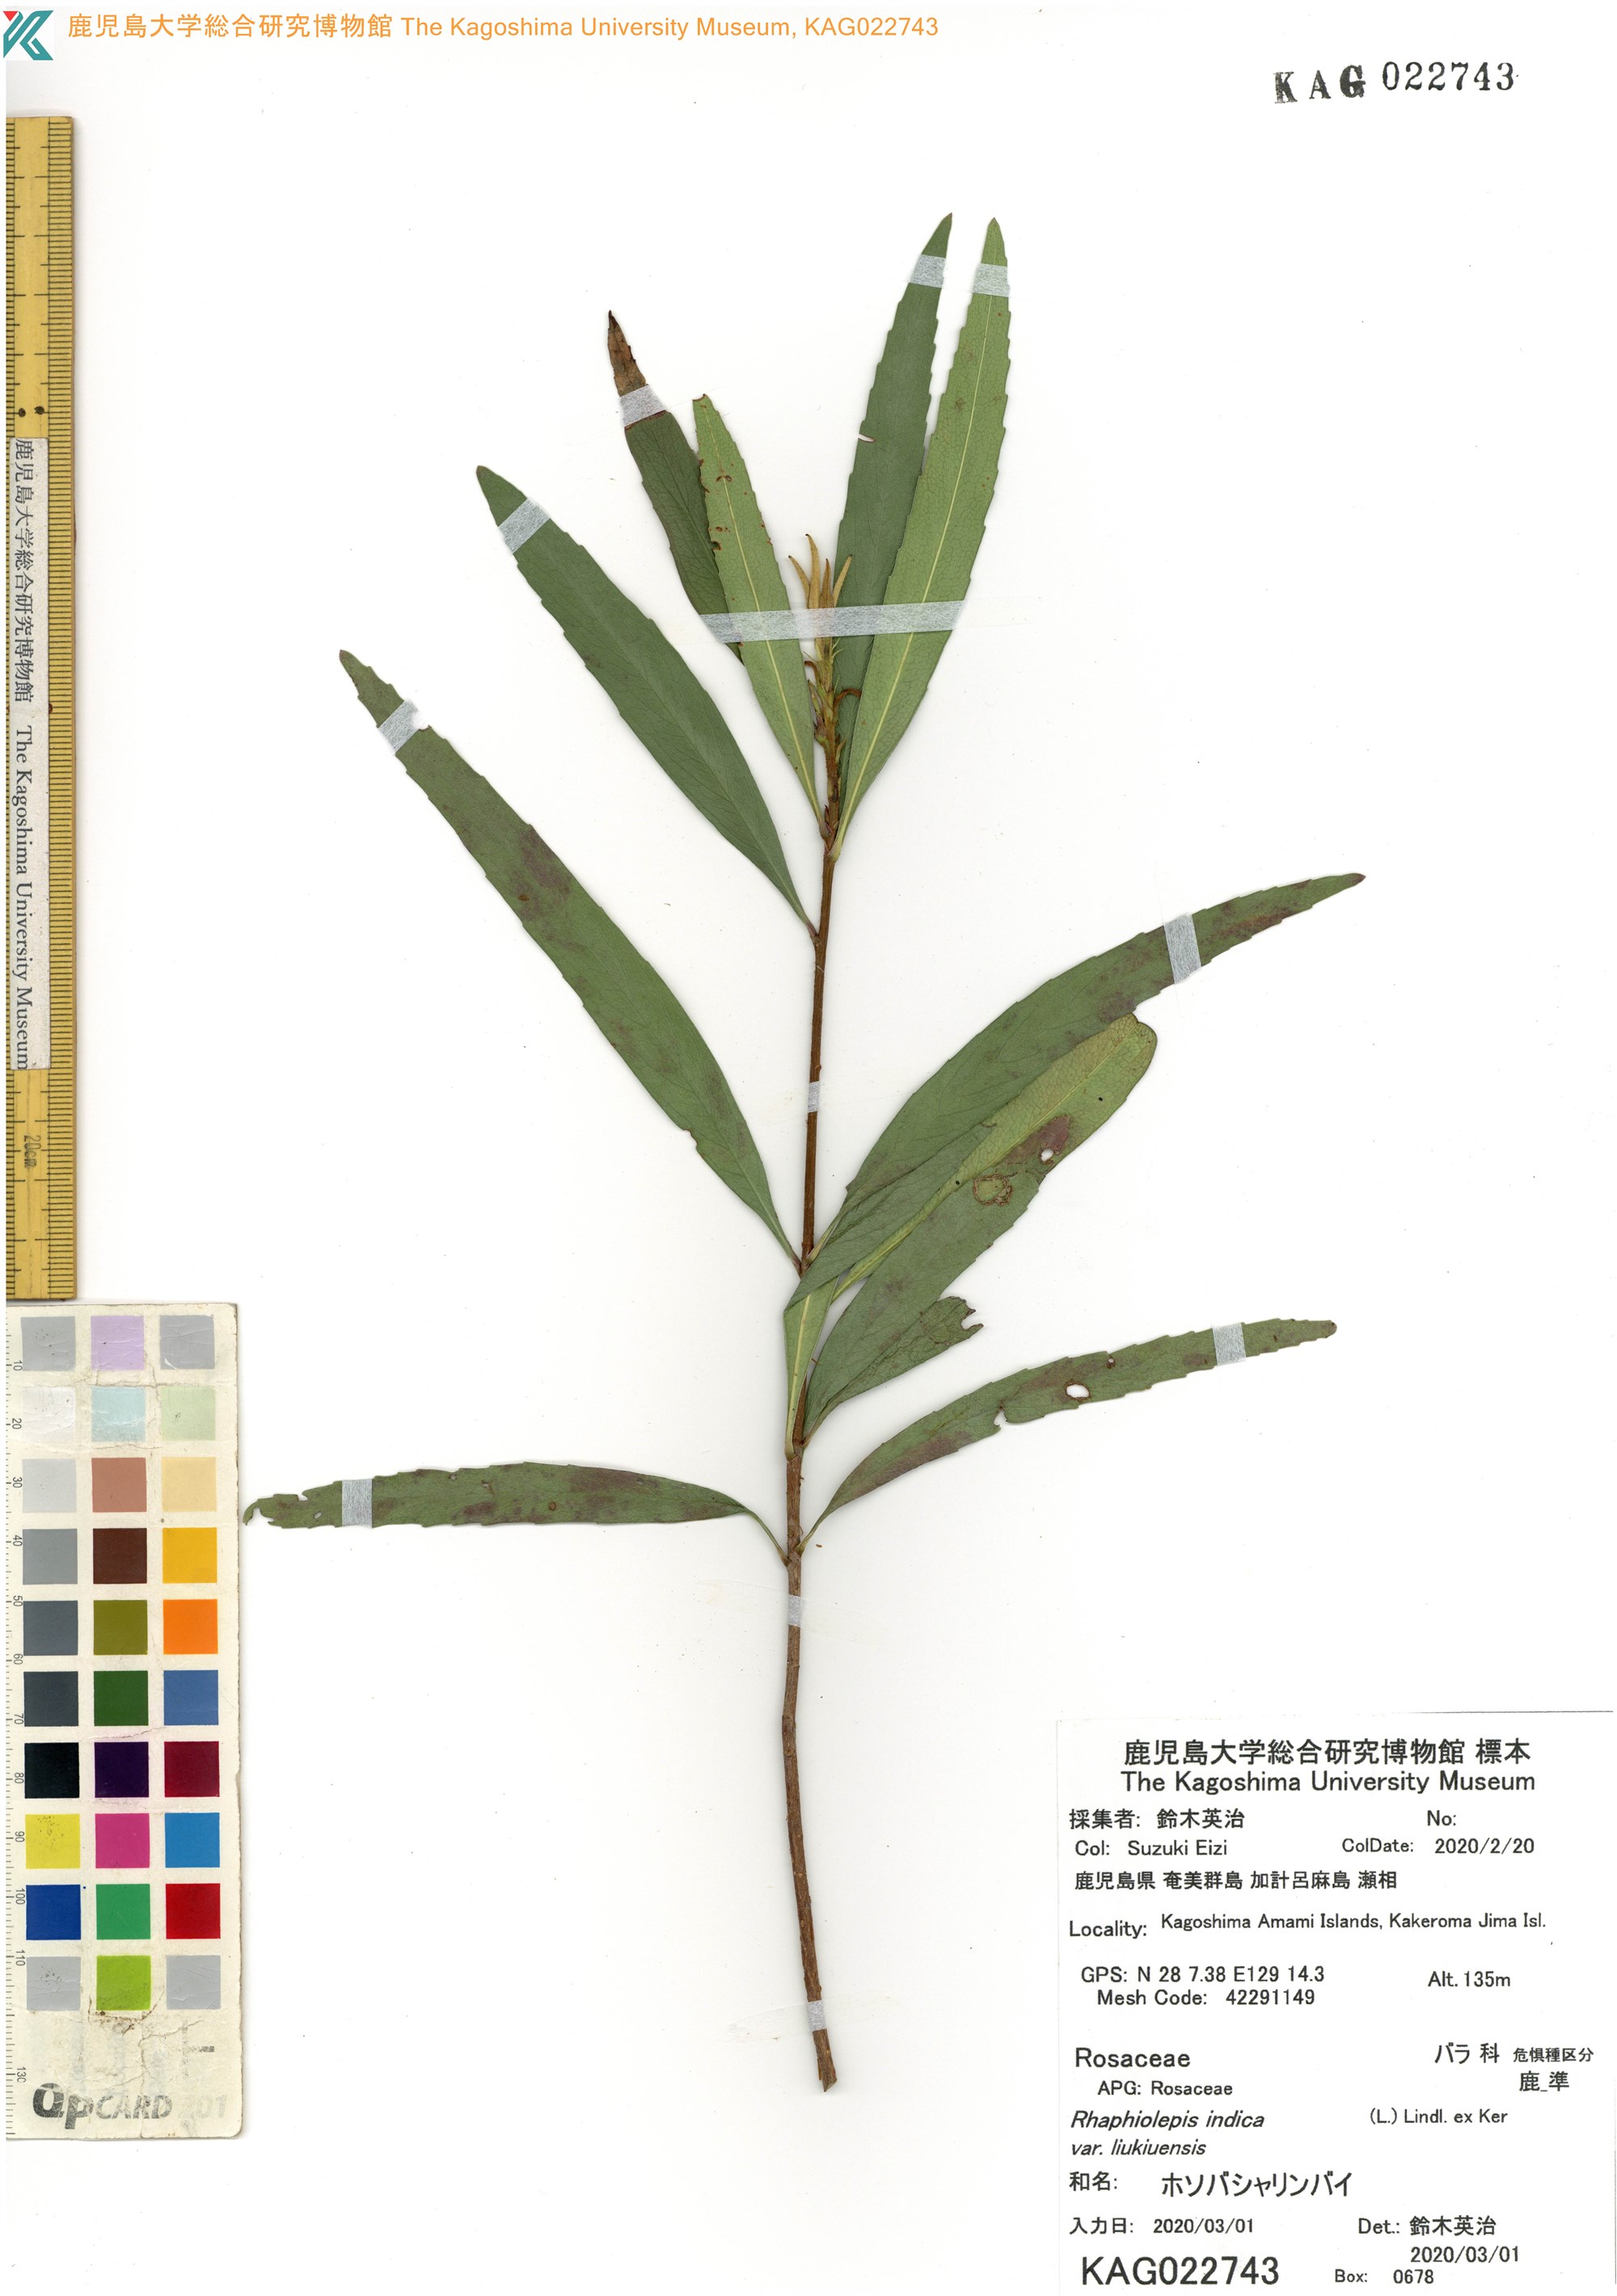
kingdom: Plantae
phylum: Tracheophyta
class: Magnoliopsida
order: Rosales
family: Rosaceae
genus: Rhaphiolepis
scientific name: Rhaphiolepis umbellata
